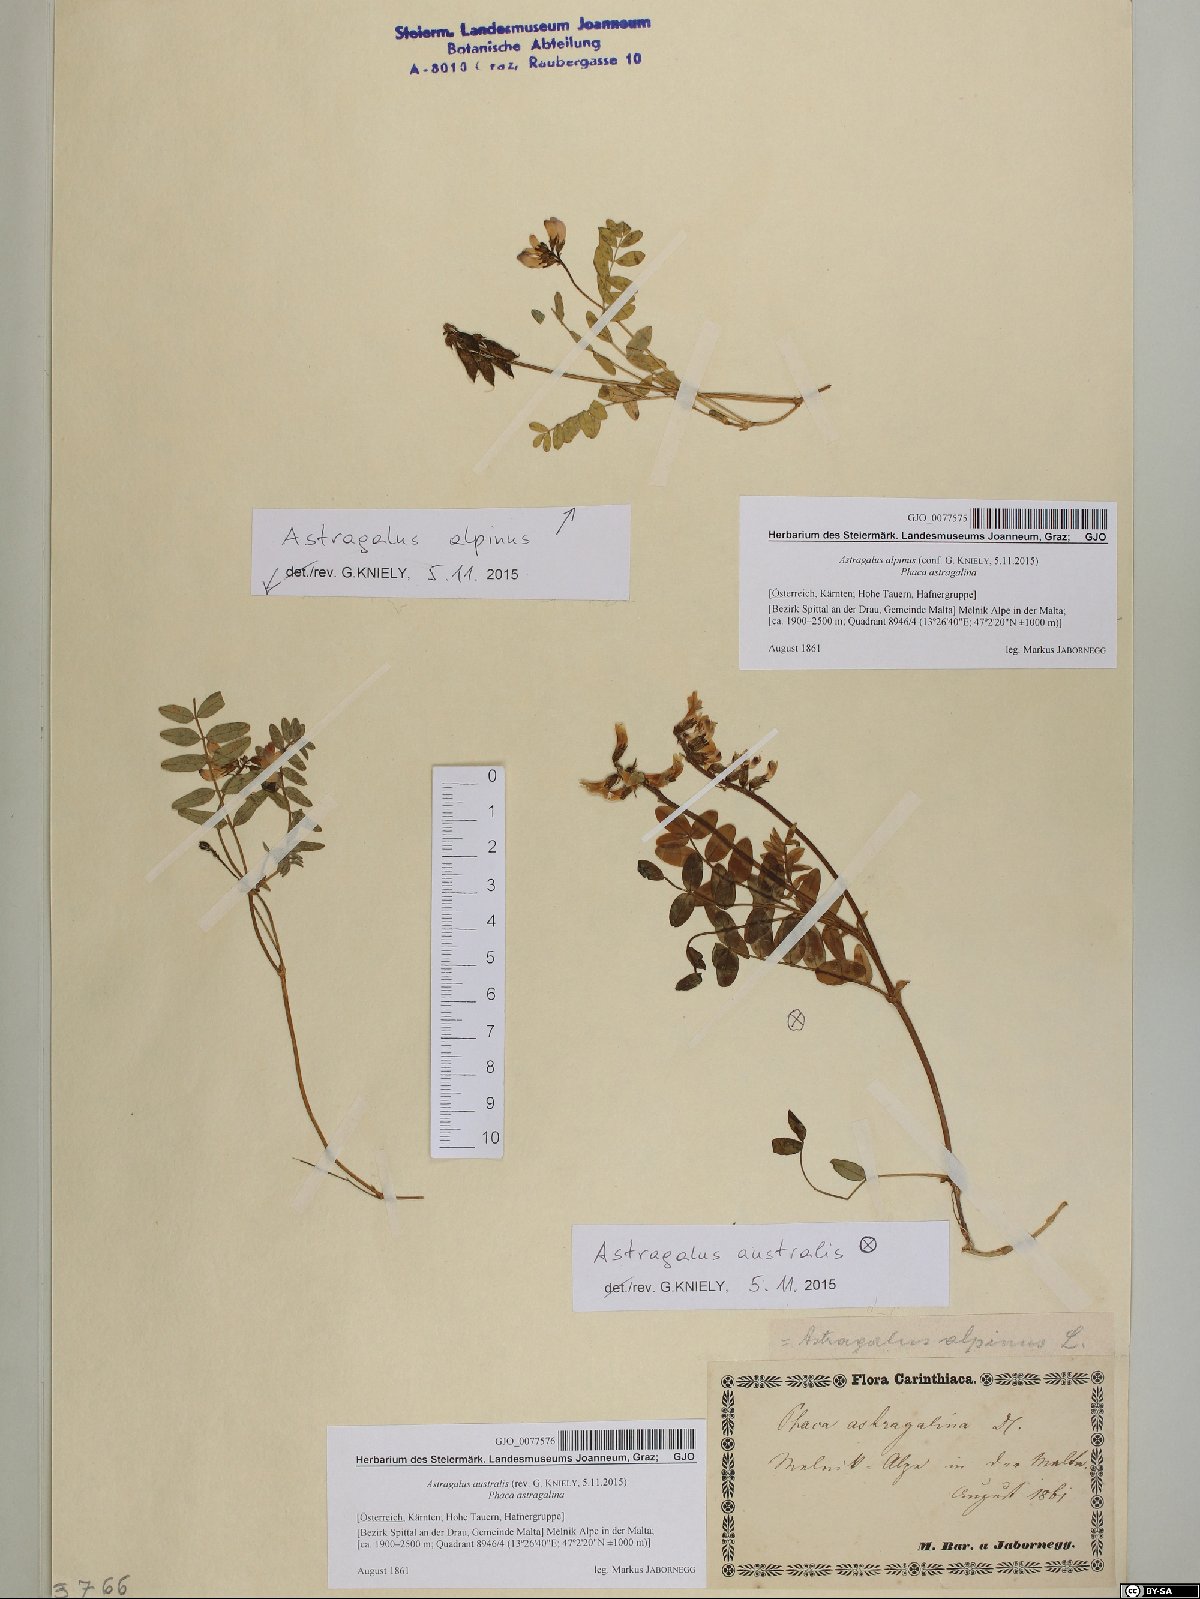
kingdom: Plantae
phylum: Tracheophyta
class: Magnoliopsida
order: Fabales
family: Fabaceae
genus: Astragalus
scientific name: Astragalus australis
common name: Indian milk-vetch
